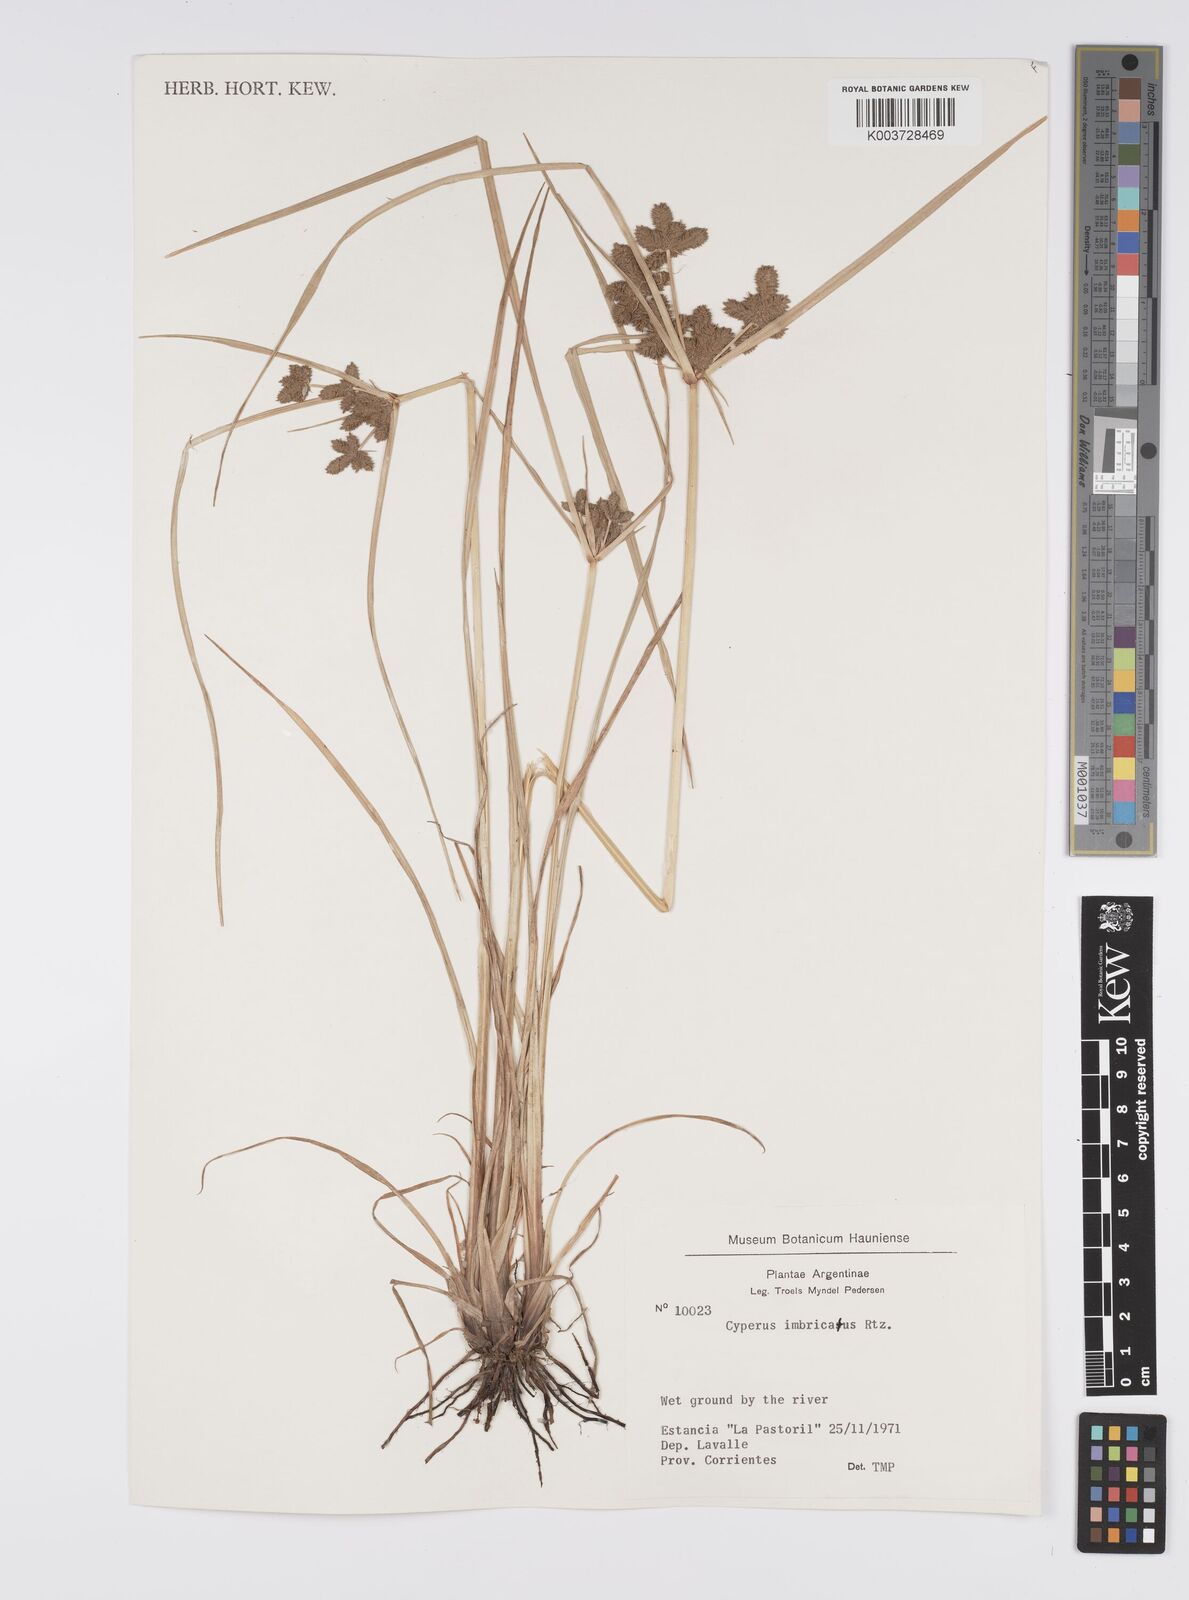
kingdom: Plantae
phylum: Tracheophyta
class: Liliopsida
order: Poales
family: Cyperaceae
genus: Cyperus
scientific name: Cyperus imbricatus
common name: Shingle flatsedge
